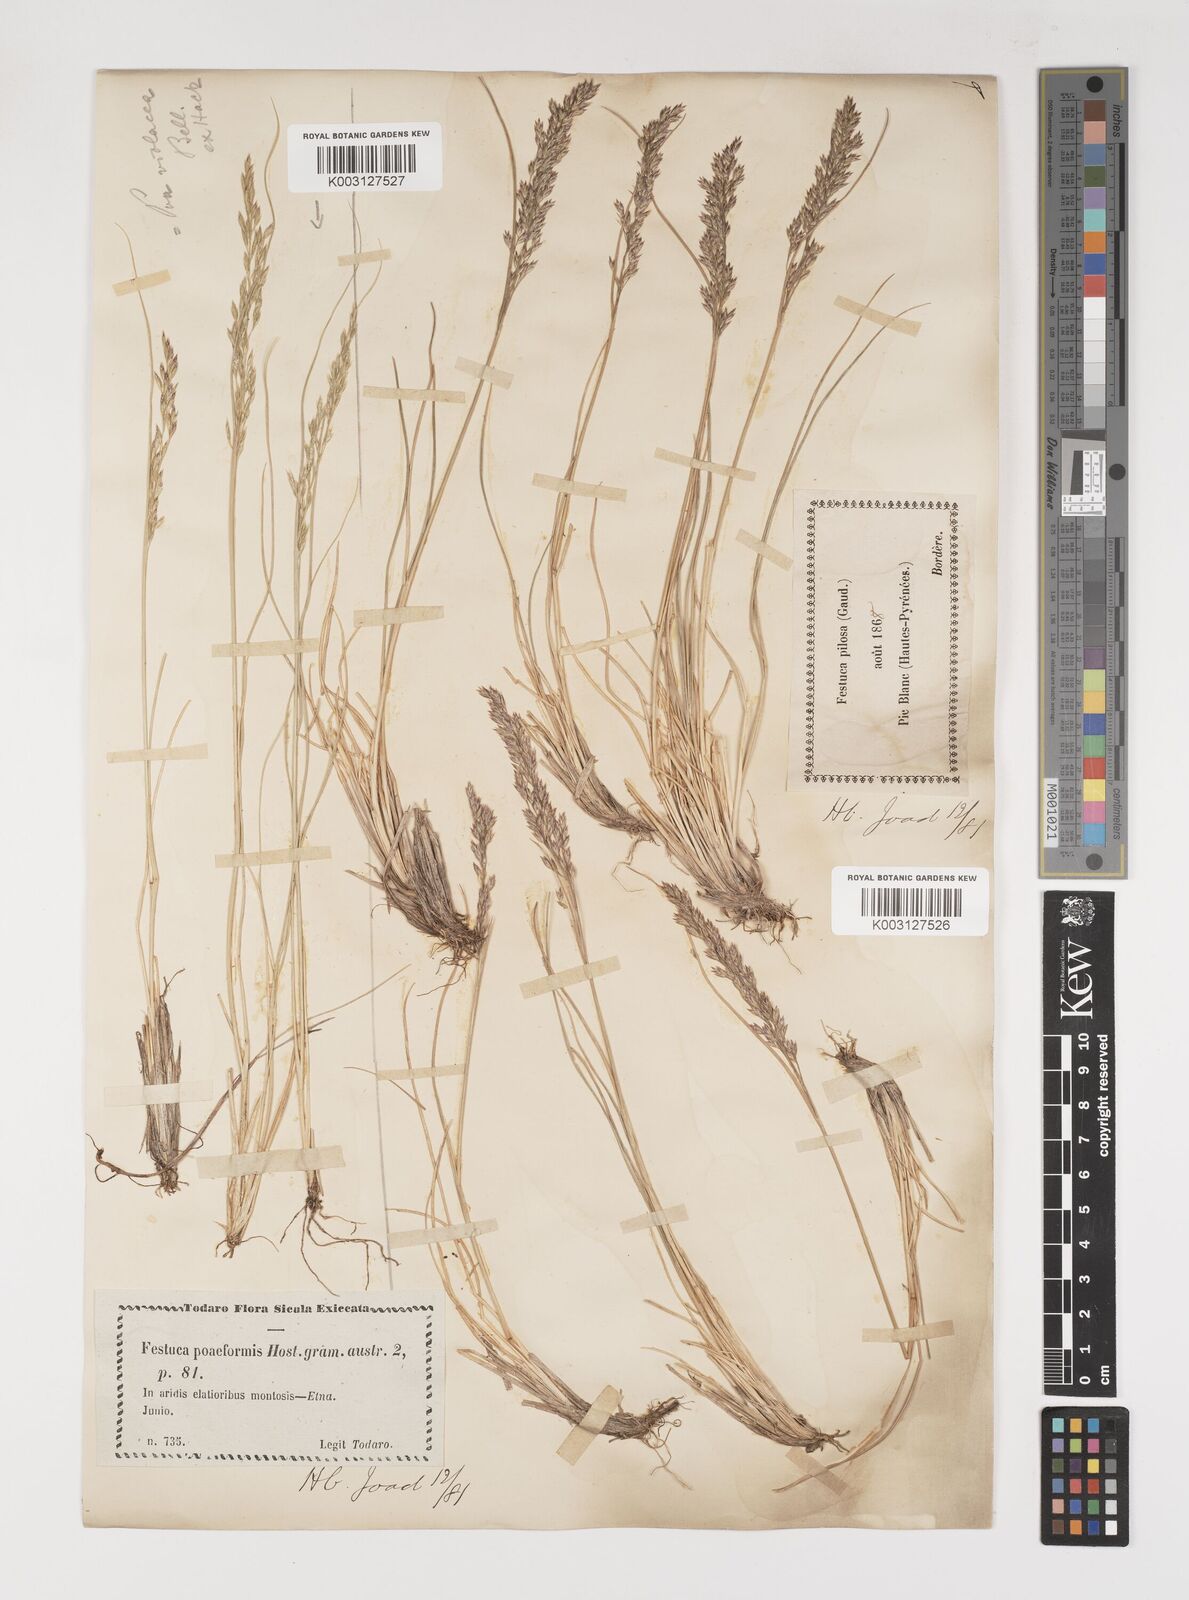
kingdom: Plantae
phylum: Tracheophyta
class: Liliopsida
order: Poales
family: Poaceae
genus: Bellardiochloa
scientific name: Bellardiochloa variegata
